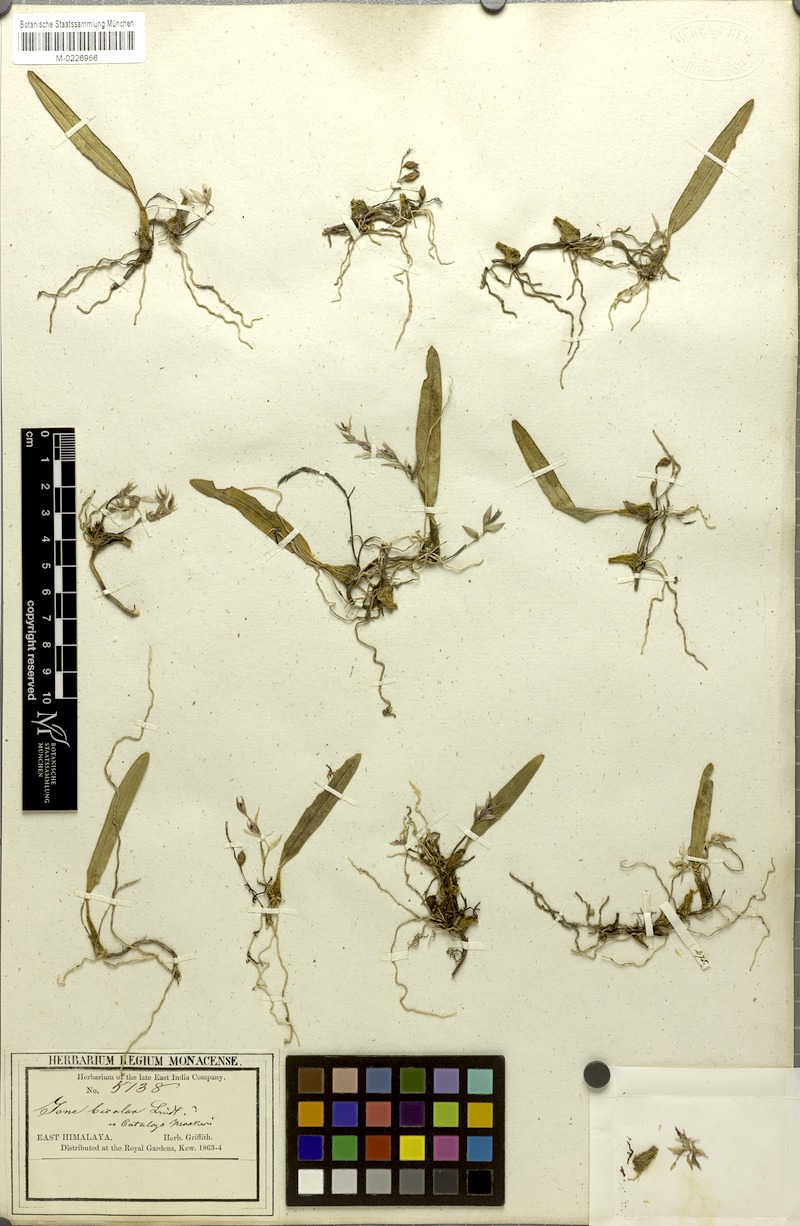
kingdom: Plantae
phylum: Tracheophyta
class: Liliopsida
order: Asparagales
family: Orchidaceae
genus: Bulbophyllum
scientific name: Bulbophyllum roseopictum
